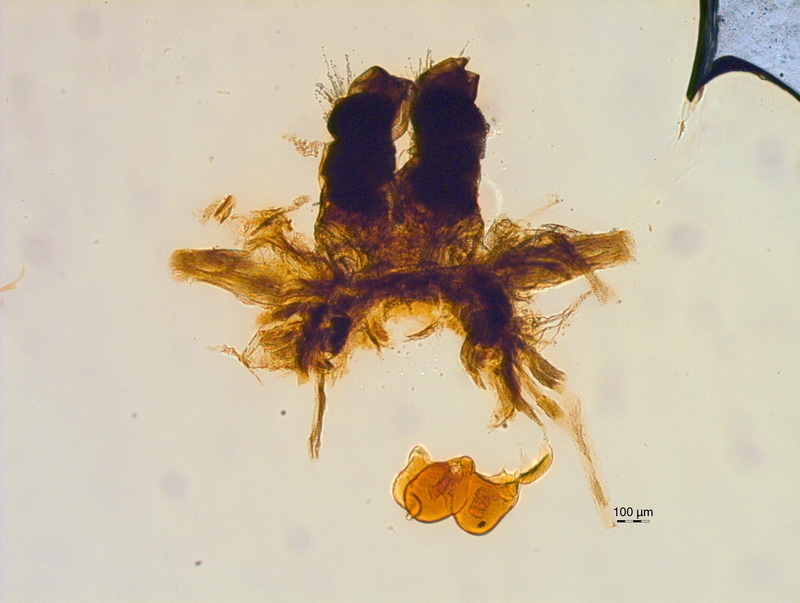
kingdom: Animalia
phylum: Arthropoda
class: Diplopoda
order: Chordeumatida
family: Chordeumatidae
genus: Mycogona
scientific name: Mycogona germanica
